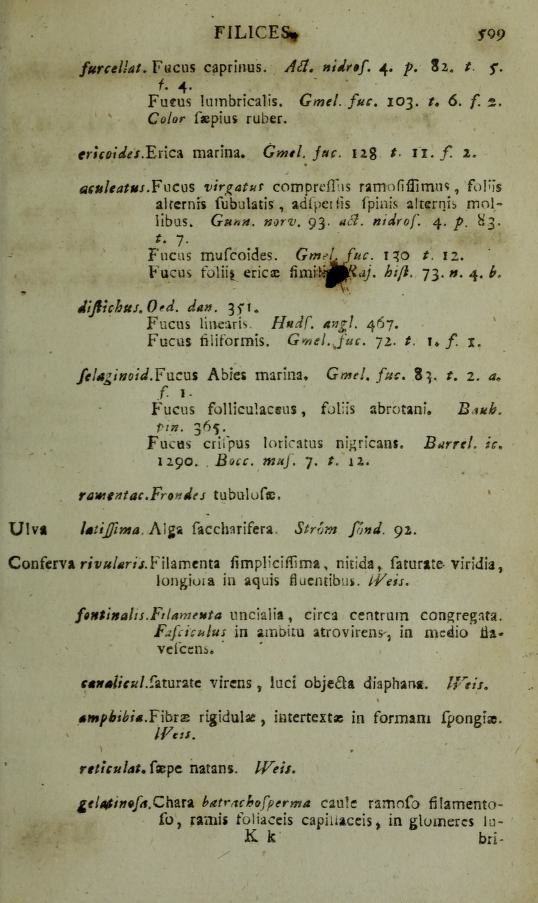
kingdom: Plantae
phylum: Rhodophyta
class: Florideophyceae
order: Gigartinales
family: Furcellariaceae
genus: Furcellaria
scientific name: Furcellaria lumbricalis
